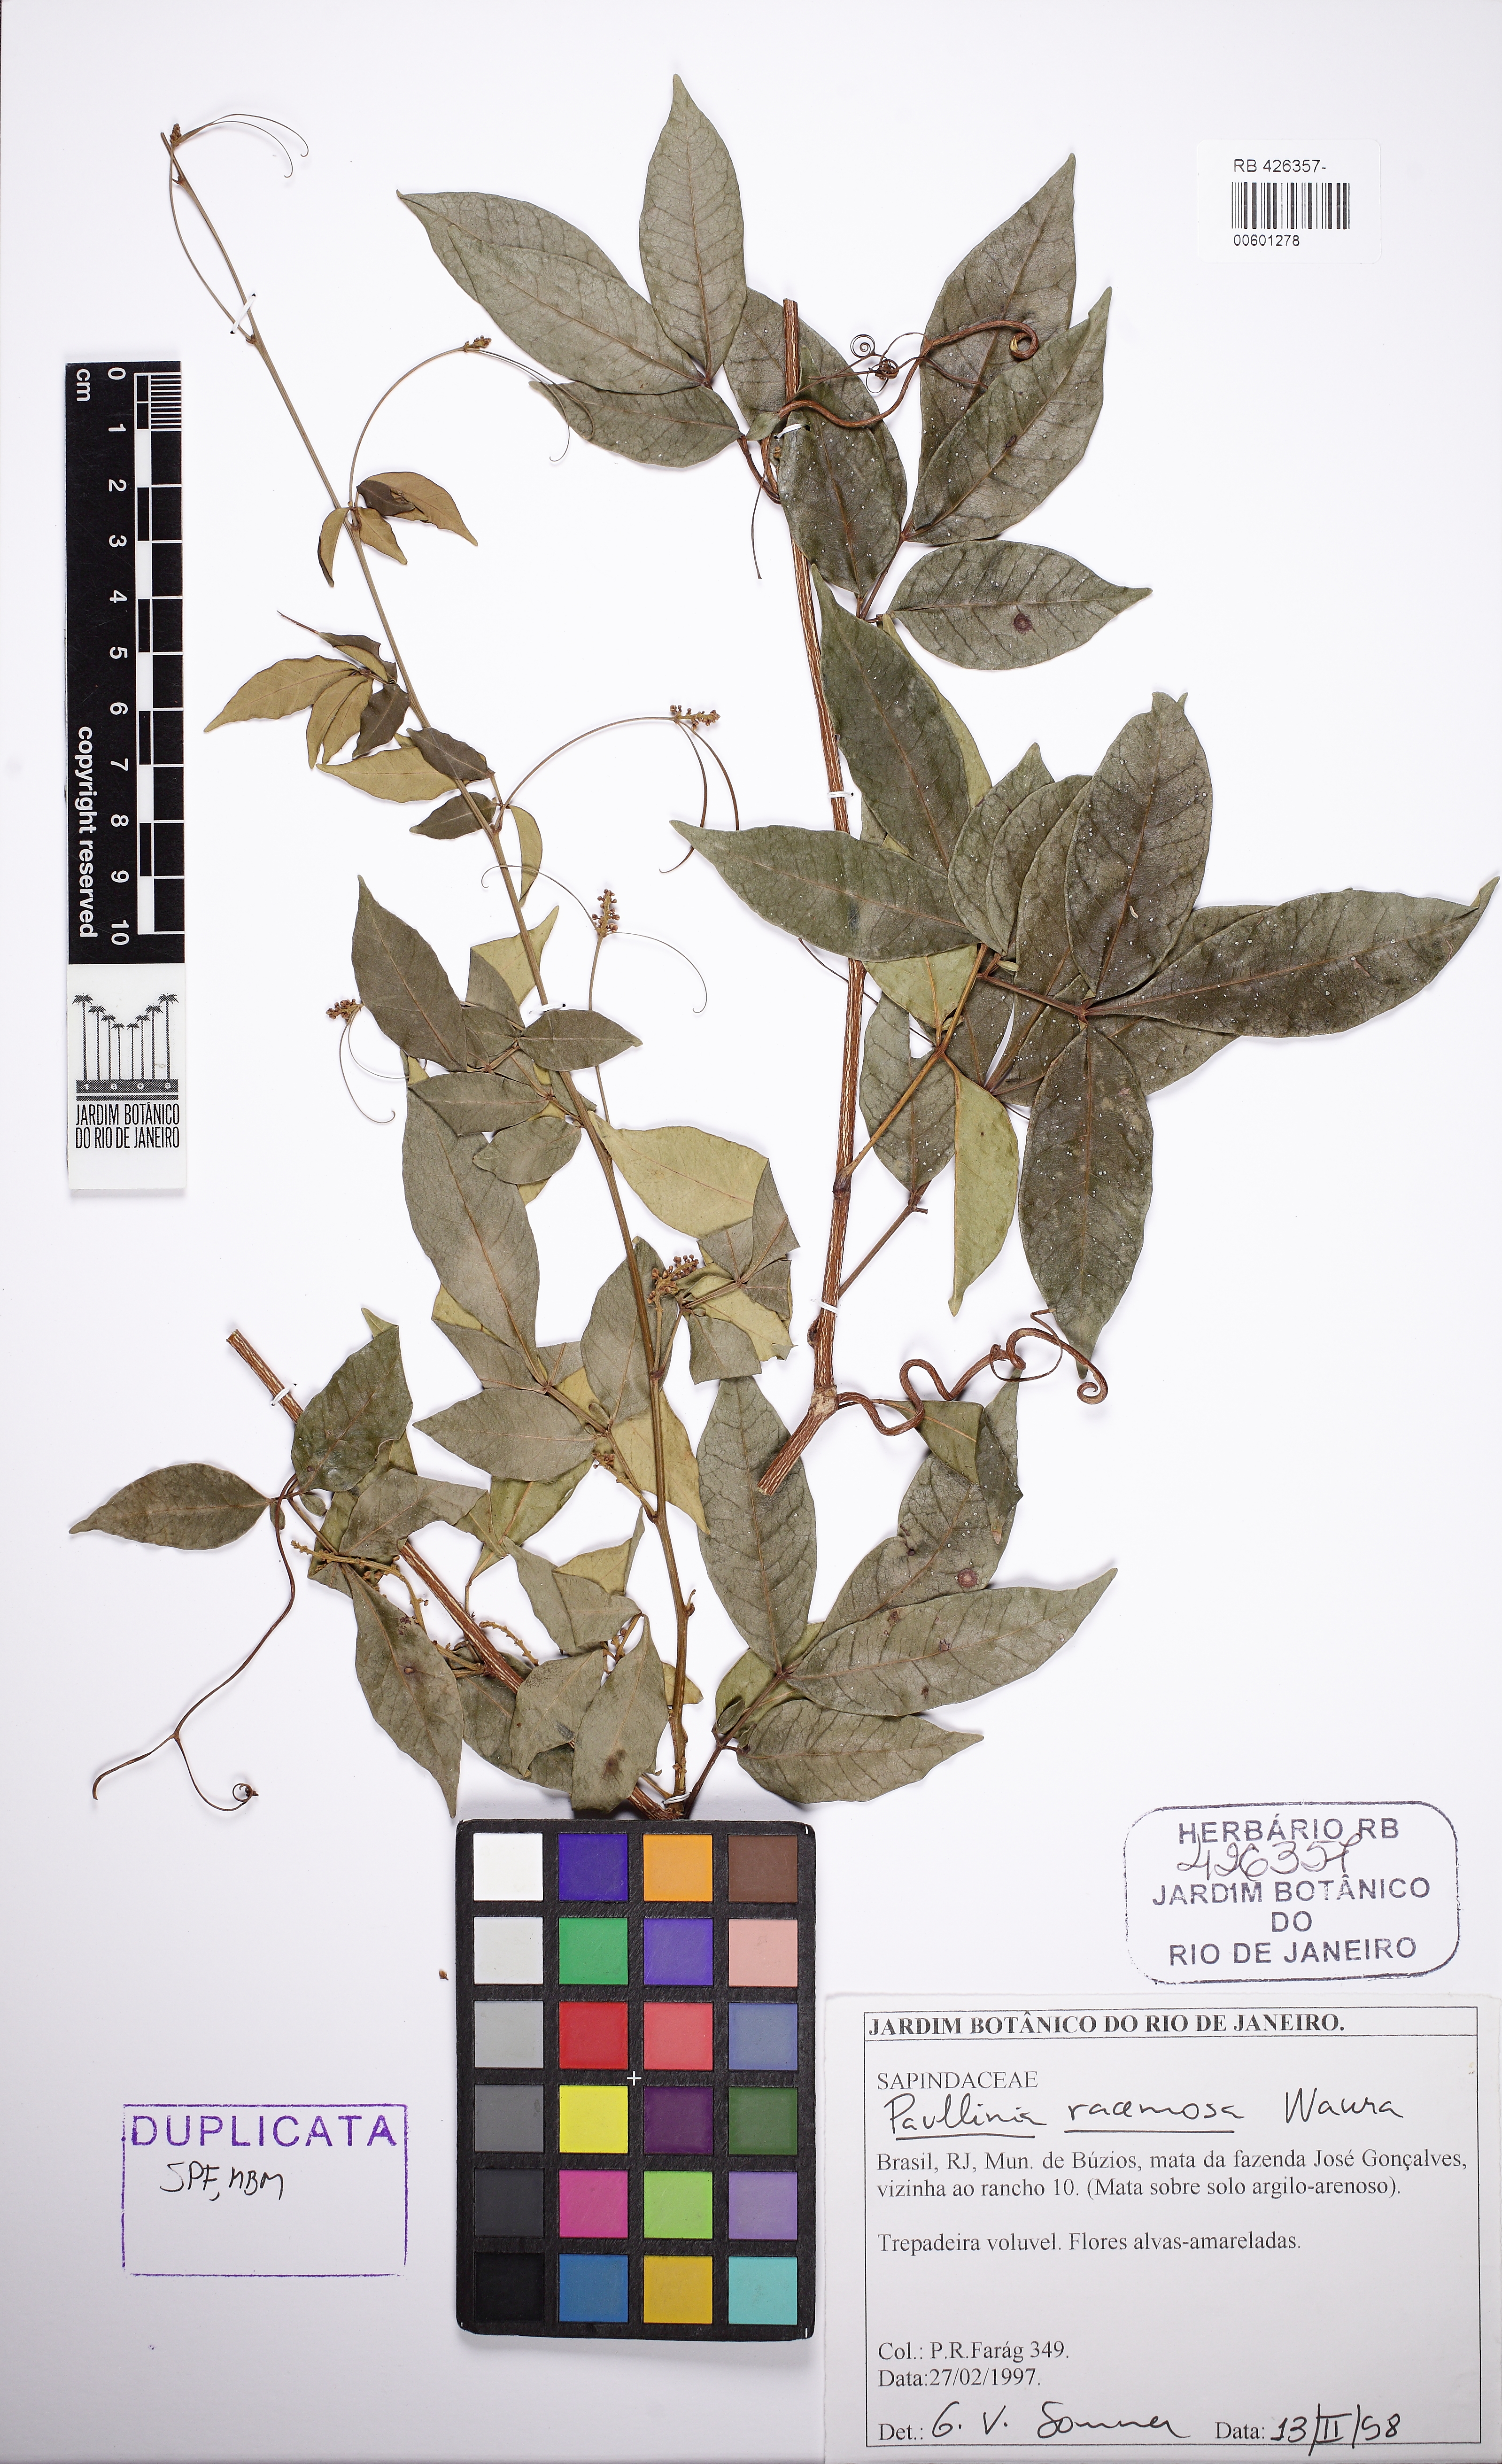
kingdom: Plantae
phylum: Tracheophyta
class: Magnoliopsida
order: Sapindales
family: Sapindaceae
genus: Paullinia
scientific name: Paullinia pseudota
